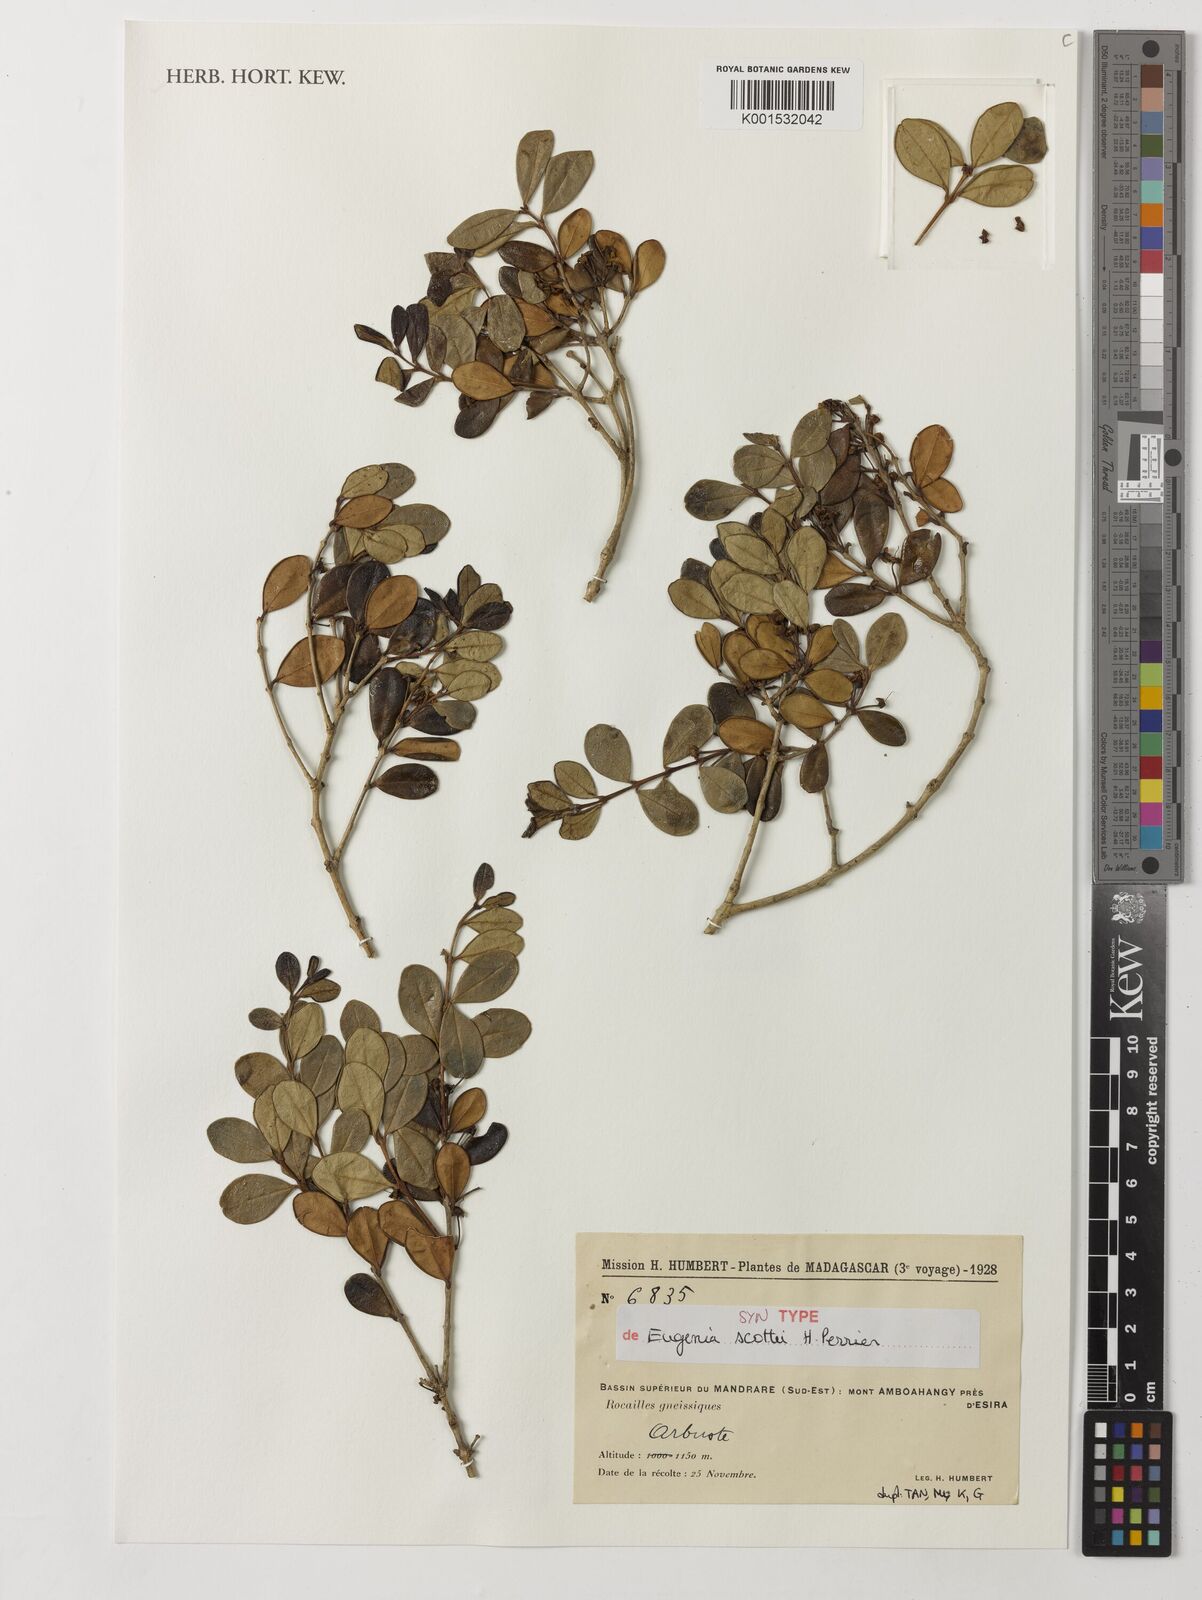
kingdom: Plantae
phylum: Tracheophyta
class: Magnoliopsida
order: Myrtales
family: Myrtaceae
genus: Eugenia
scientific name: Eugenia scottii
